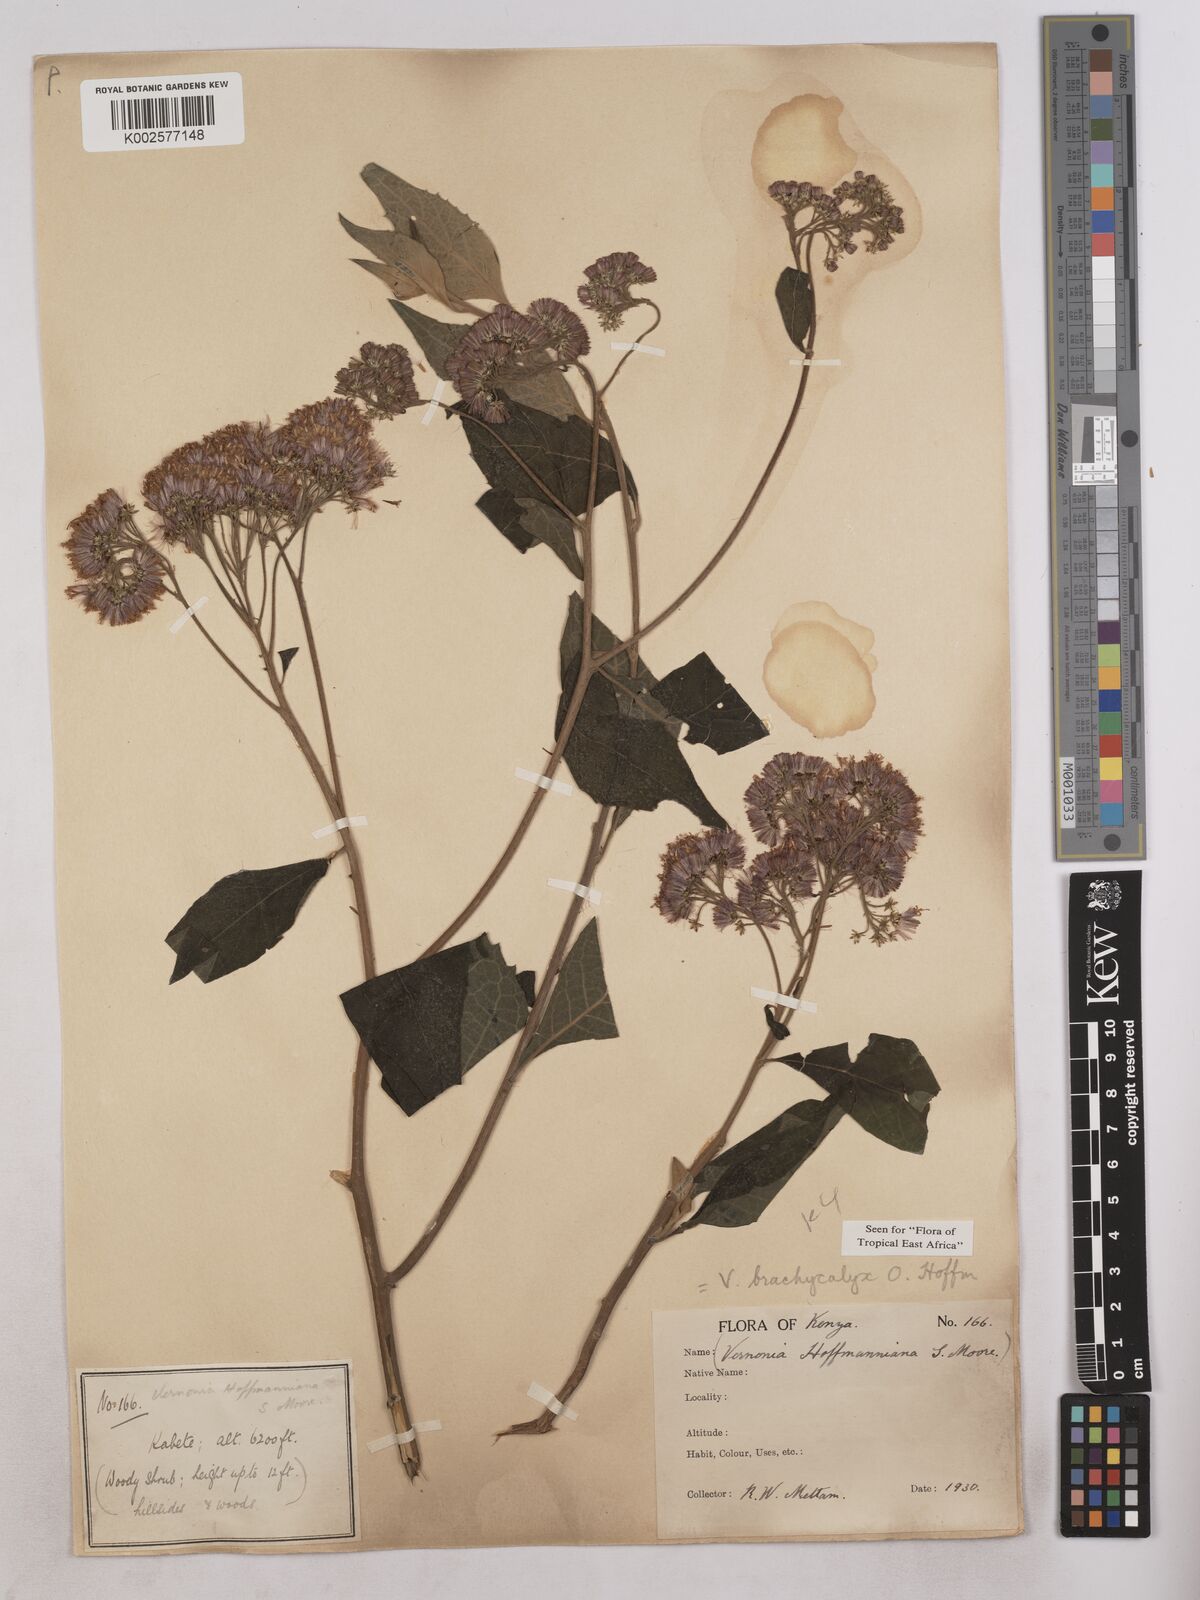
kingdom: Plantae
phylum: Tracheophyta
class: Magnoliopsida
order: Asterales
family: Asteraceae
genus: Hoffmannanthus
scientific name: Hoffmannanthus abbotianus
